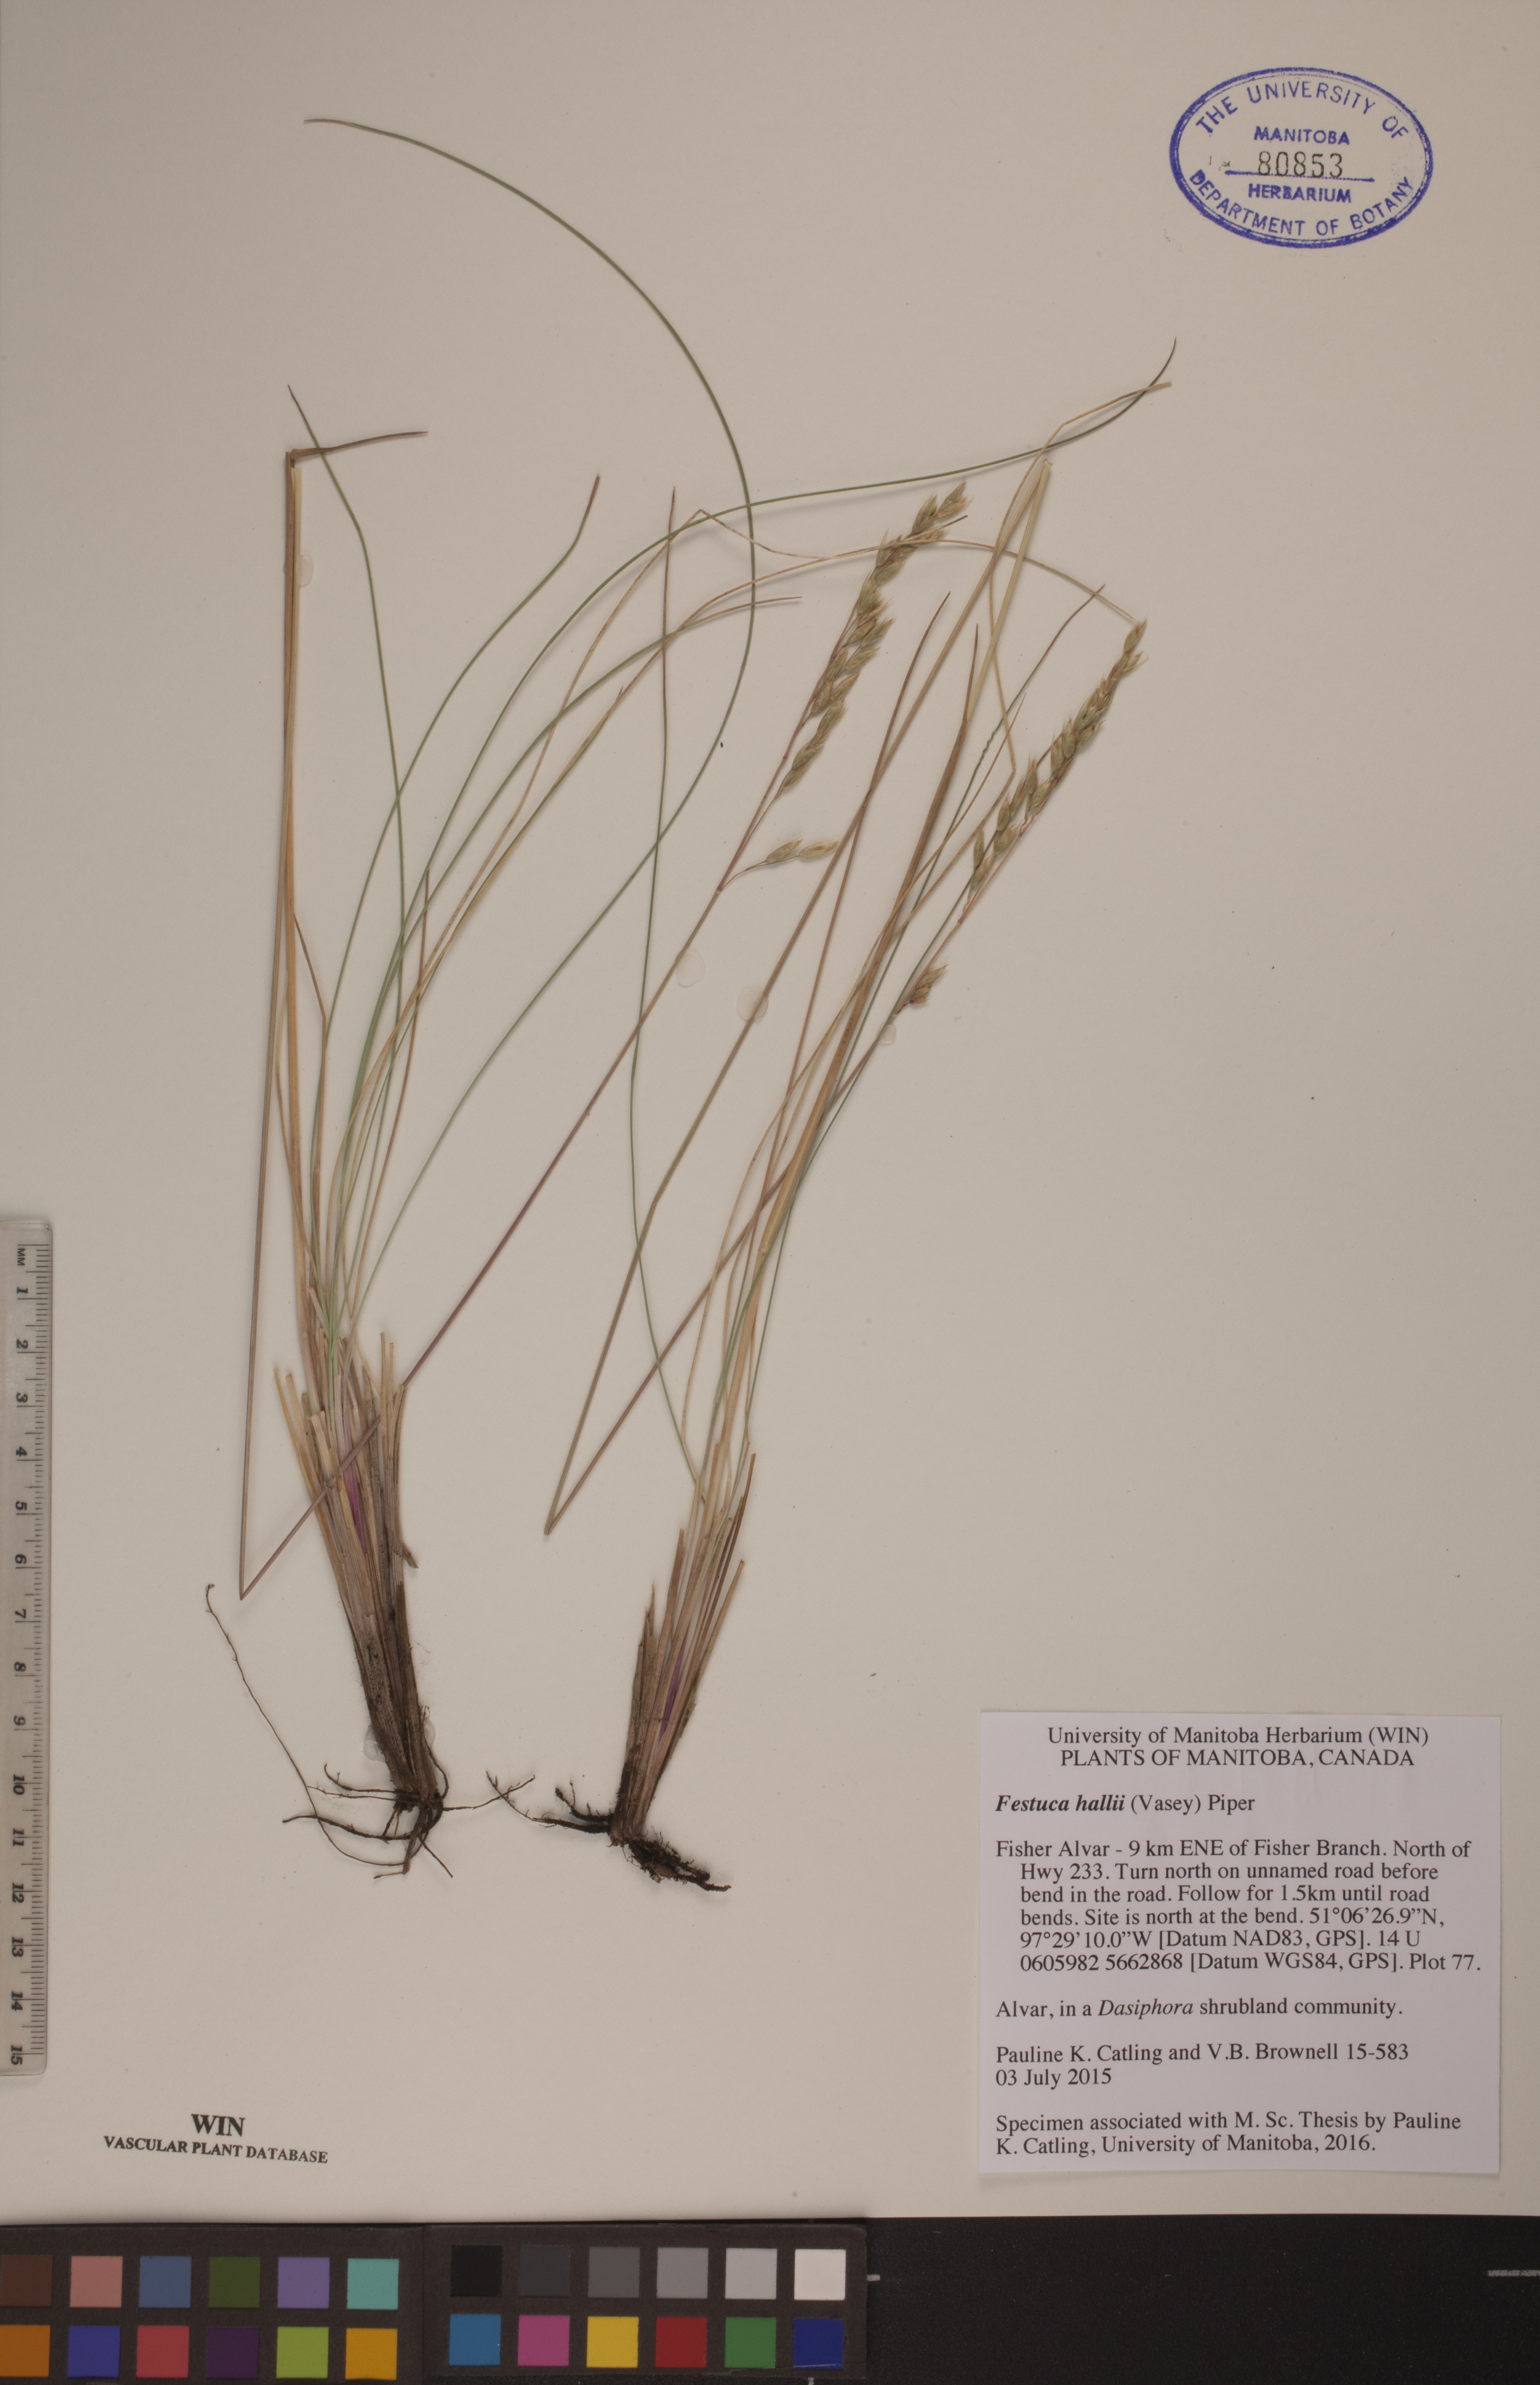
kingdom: Plantae
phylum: Tracheophyta
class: Liliopsida
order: Poales
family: Poaceae
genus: Festuca
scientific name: Festuca hallii
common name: Hall's fescue
